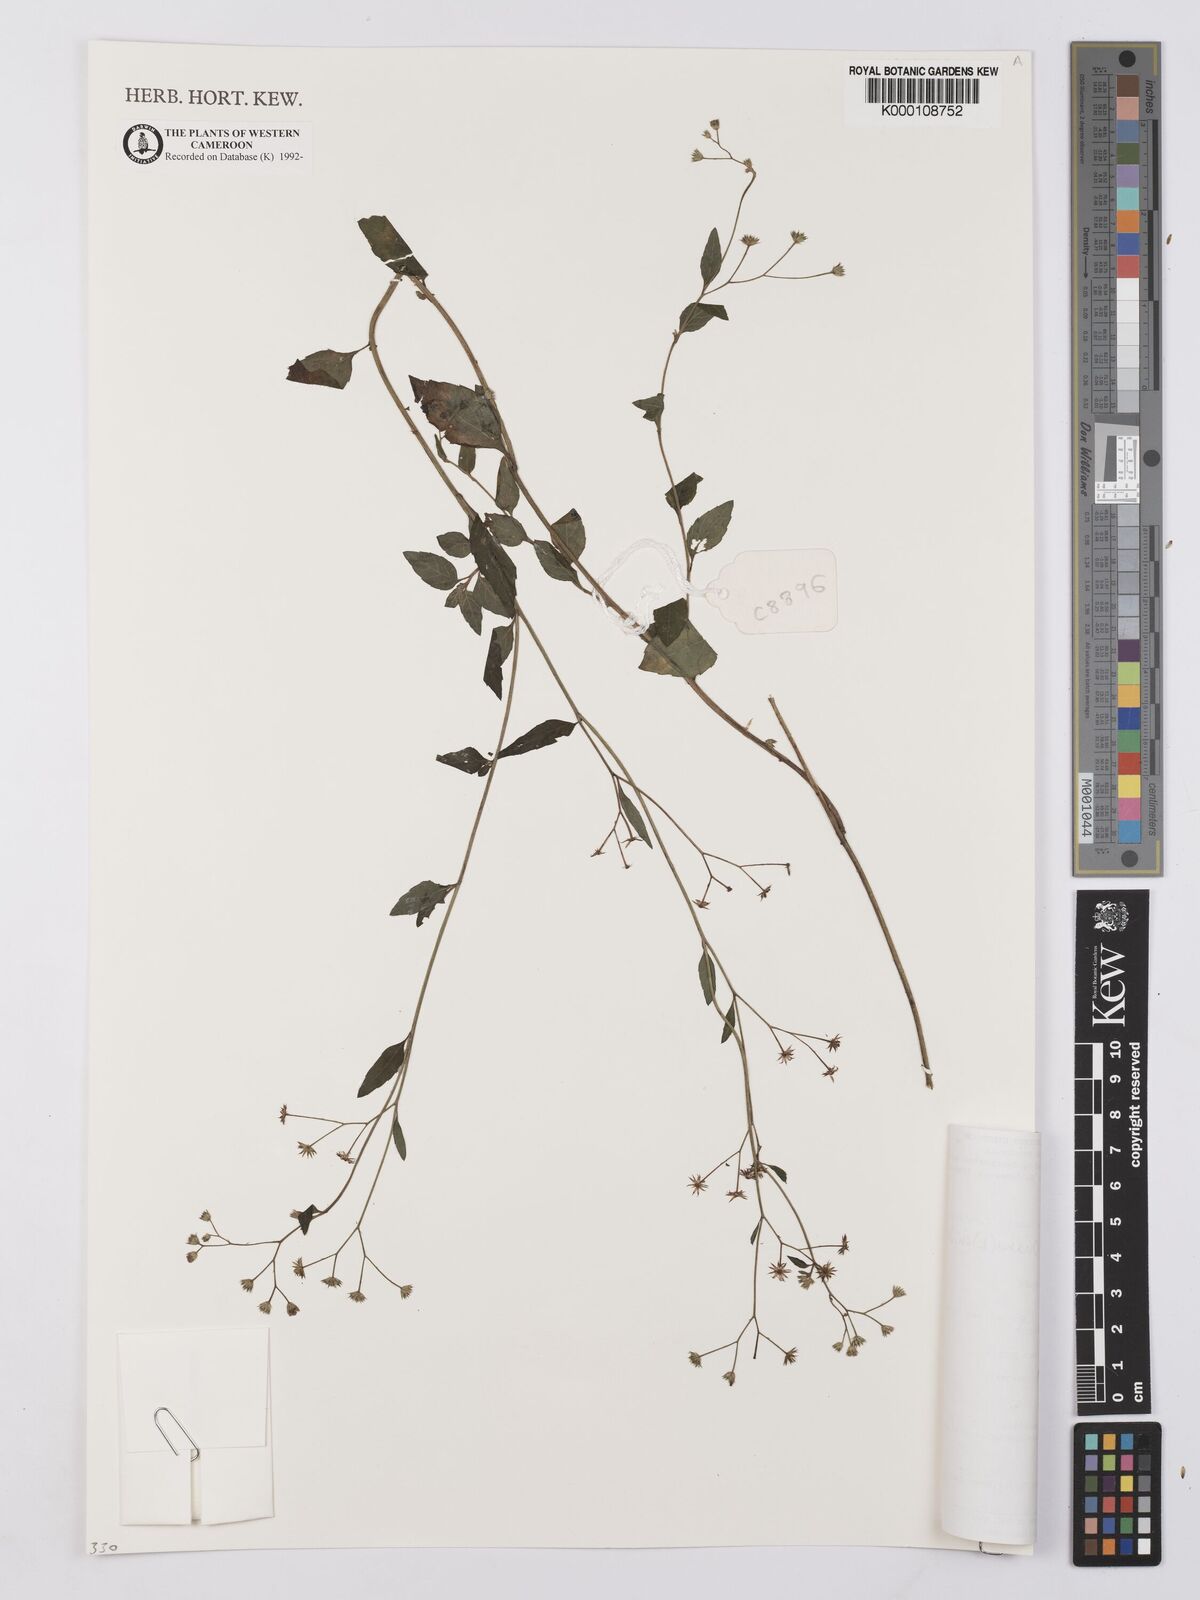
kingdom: Plantae
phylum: Tracheophyta
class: Magnoliopsida
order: Asterales
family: Asteraceae
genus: Cyanthillium
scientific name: Cyanthillium stelluliferum
